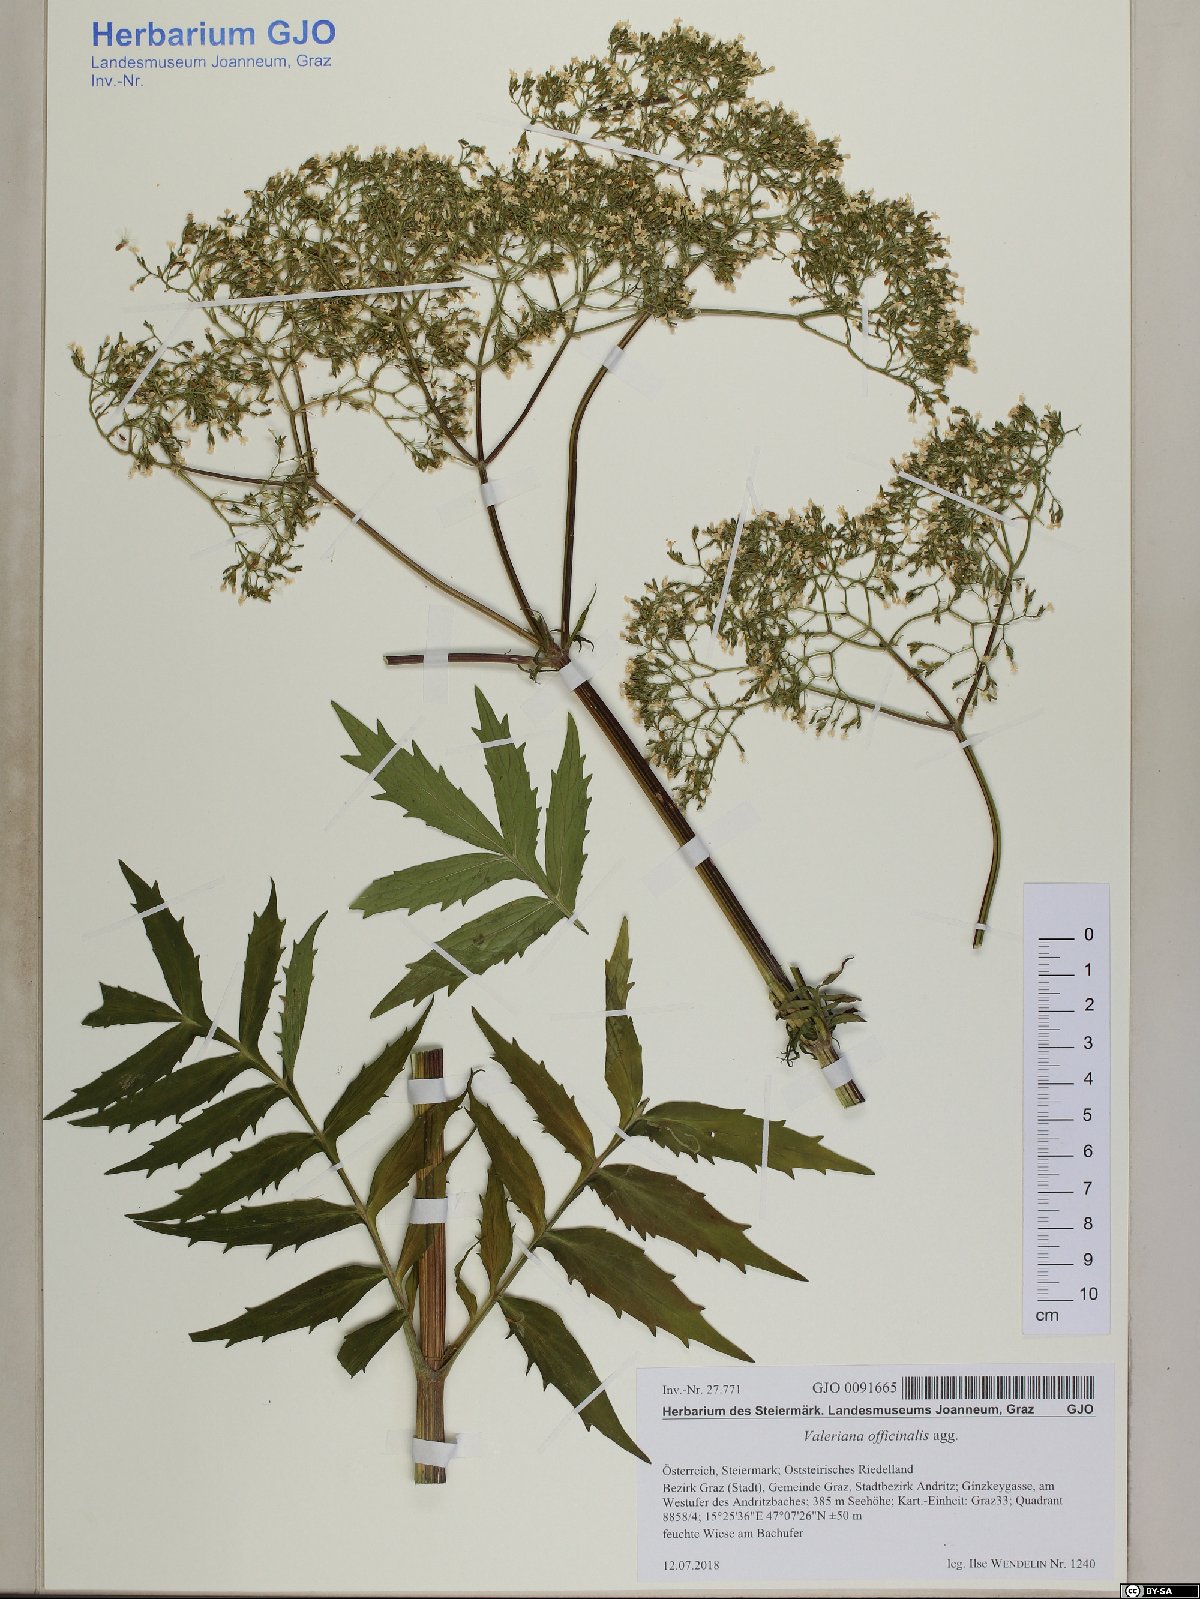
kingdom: Plantae
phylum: Tracheophyta
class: Magnoliopsida
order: Dipsacales
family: Caprifoliaceae
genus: Valeriana
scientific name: Valeriana officinalis
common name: Common valerian
